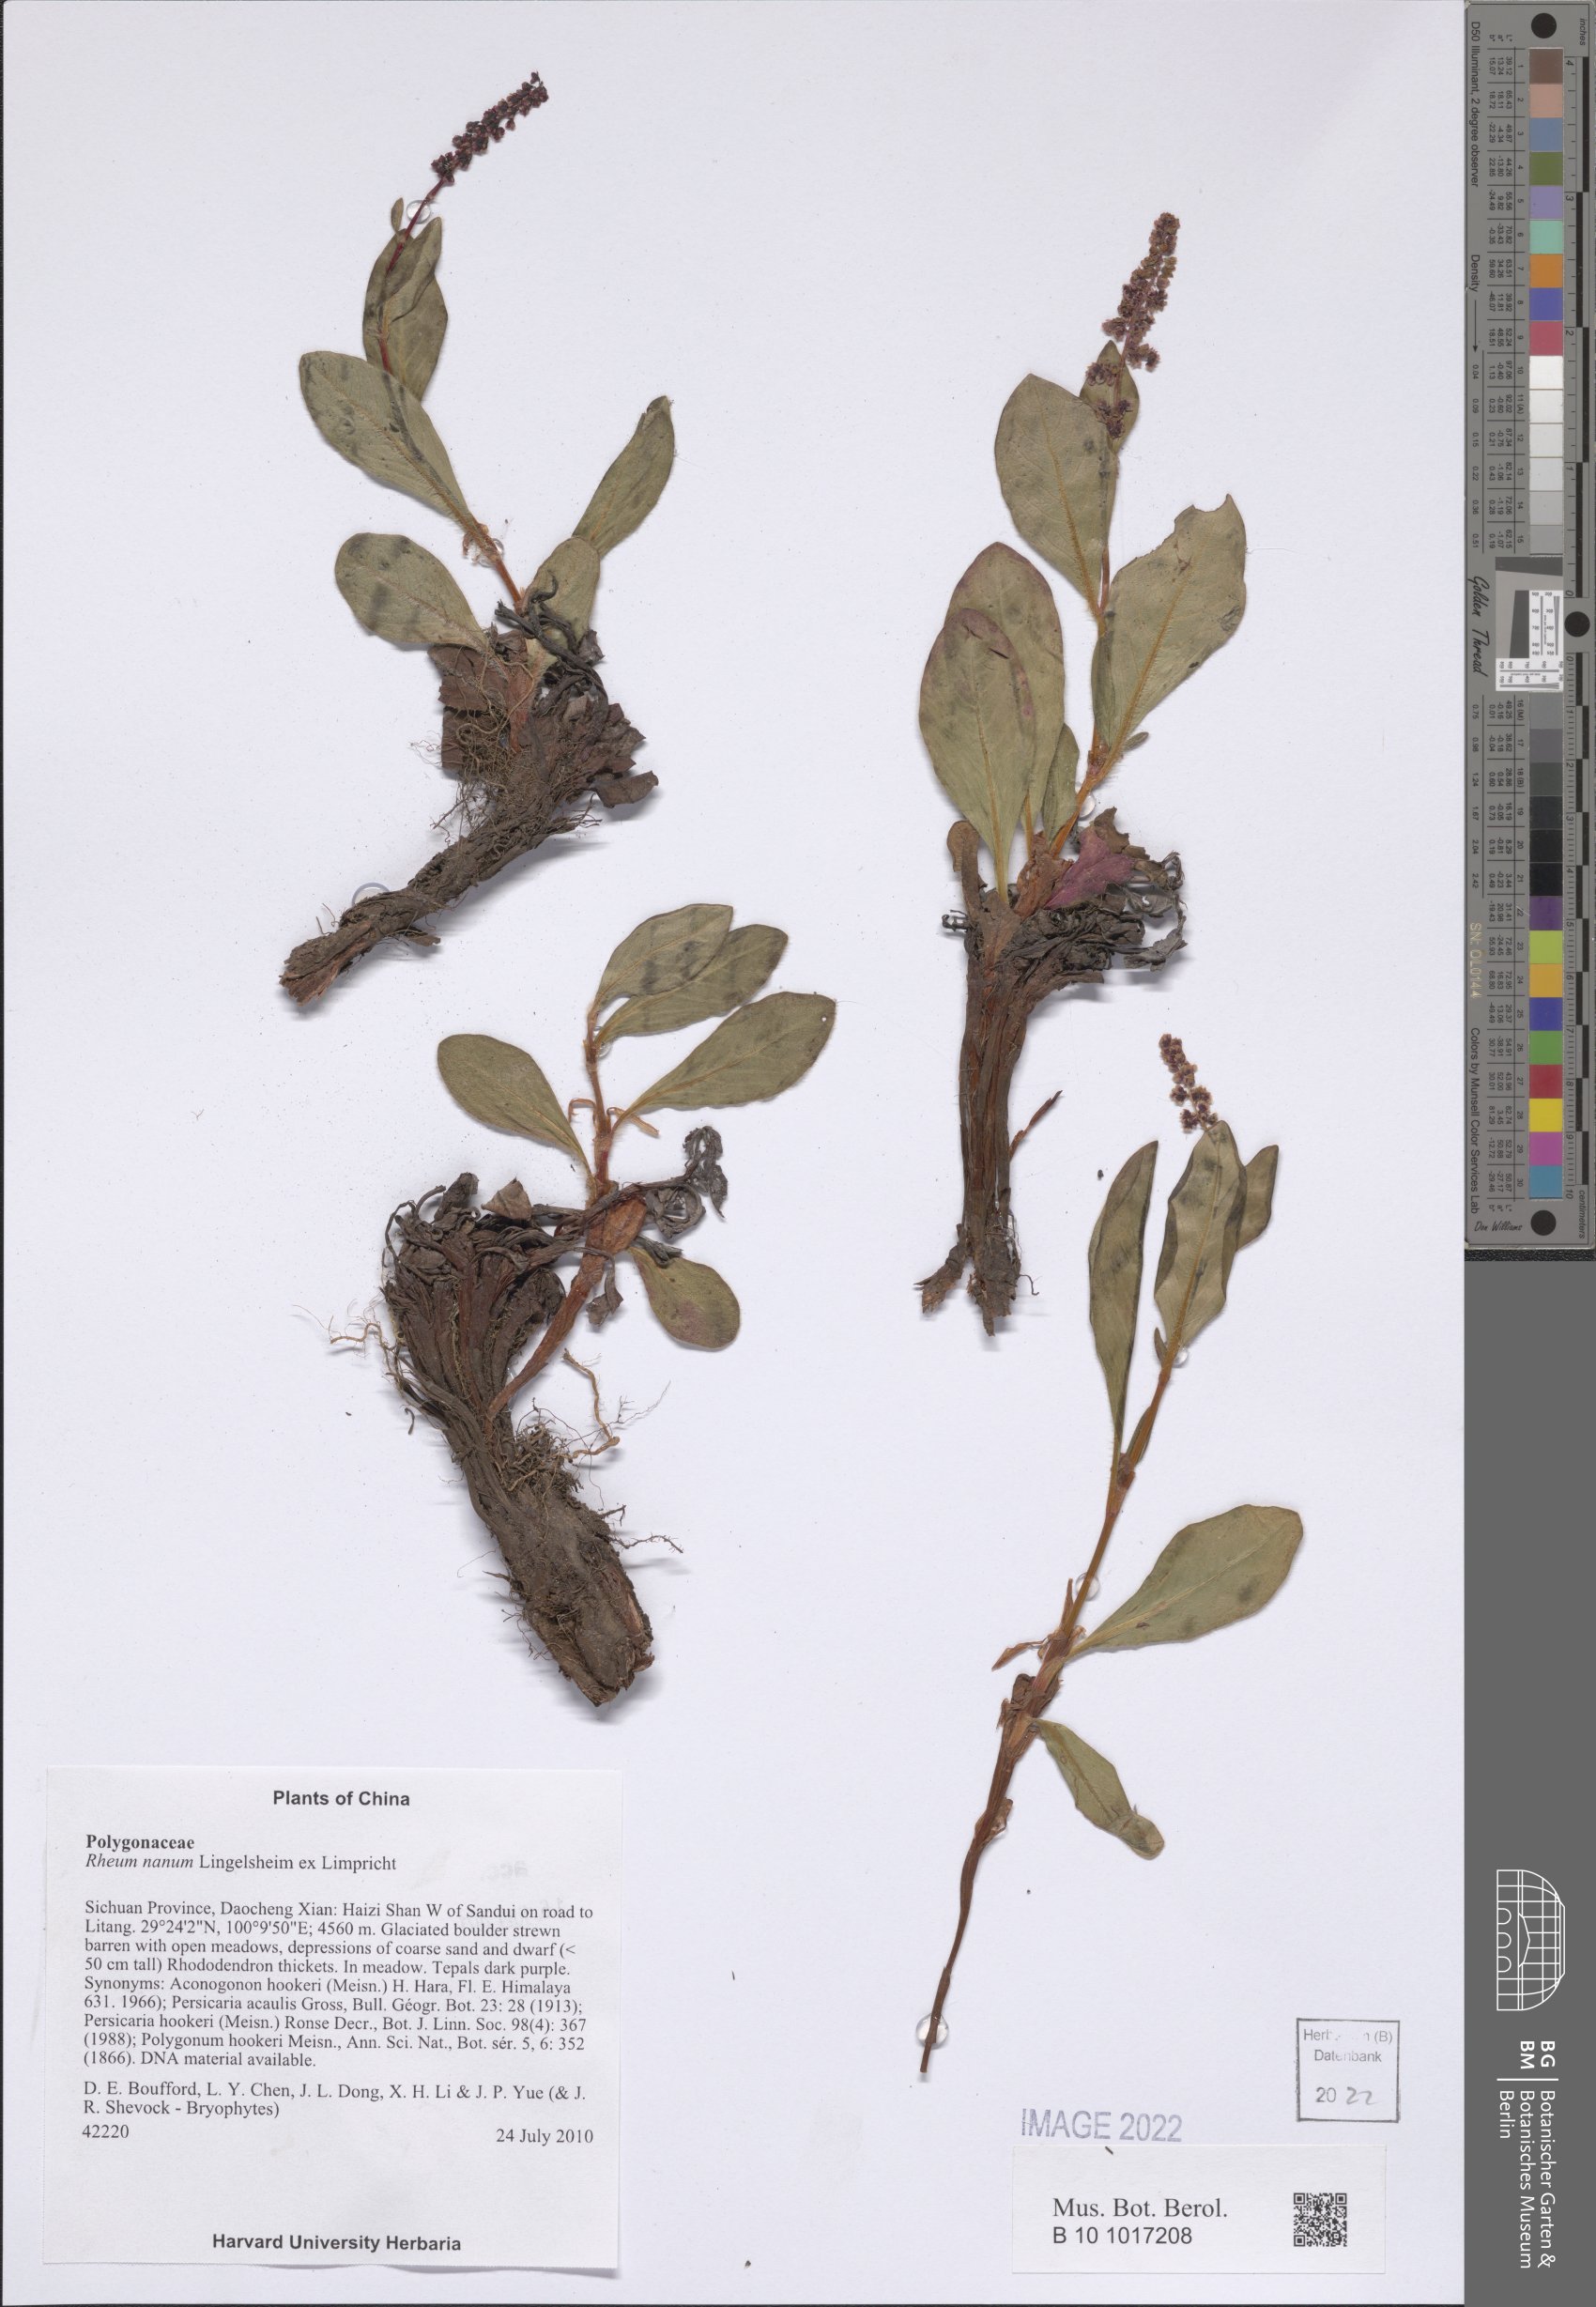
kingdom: Plantae
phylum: Tracheophyta
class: Magnoliopsida
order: Caryophyllales
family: Polygonaceae
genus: Koenigia
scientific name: Koenigia hookeri
